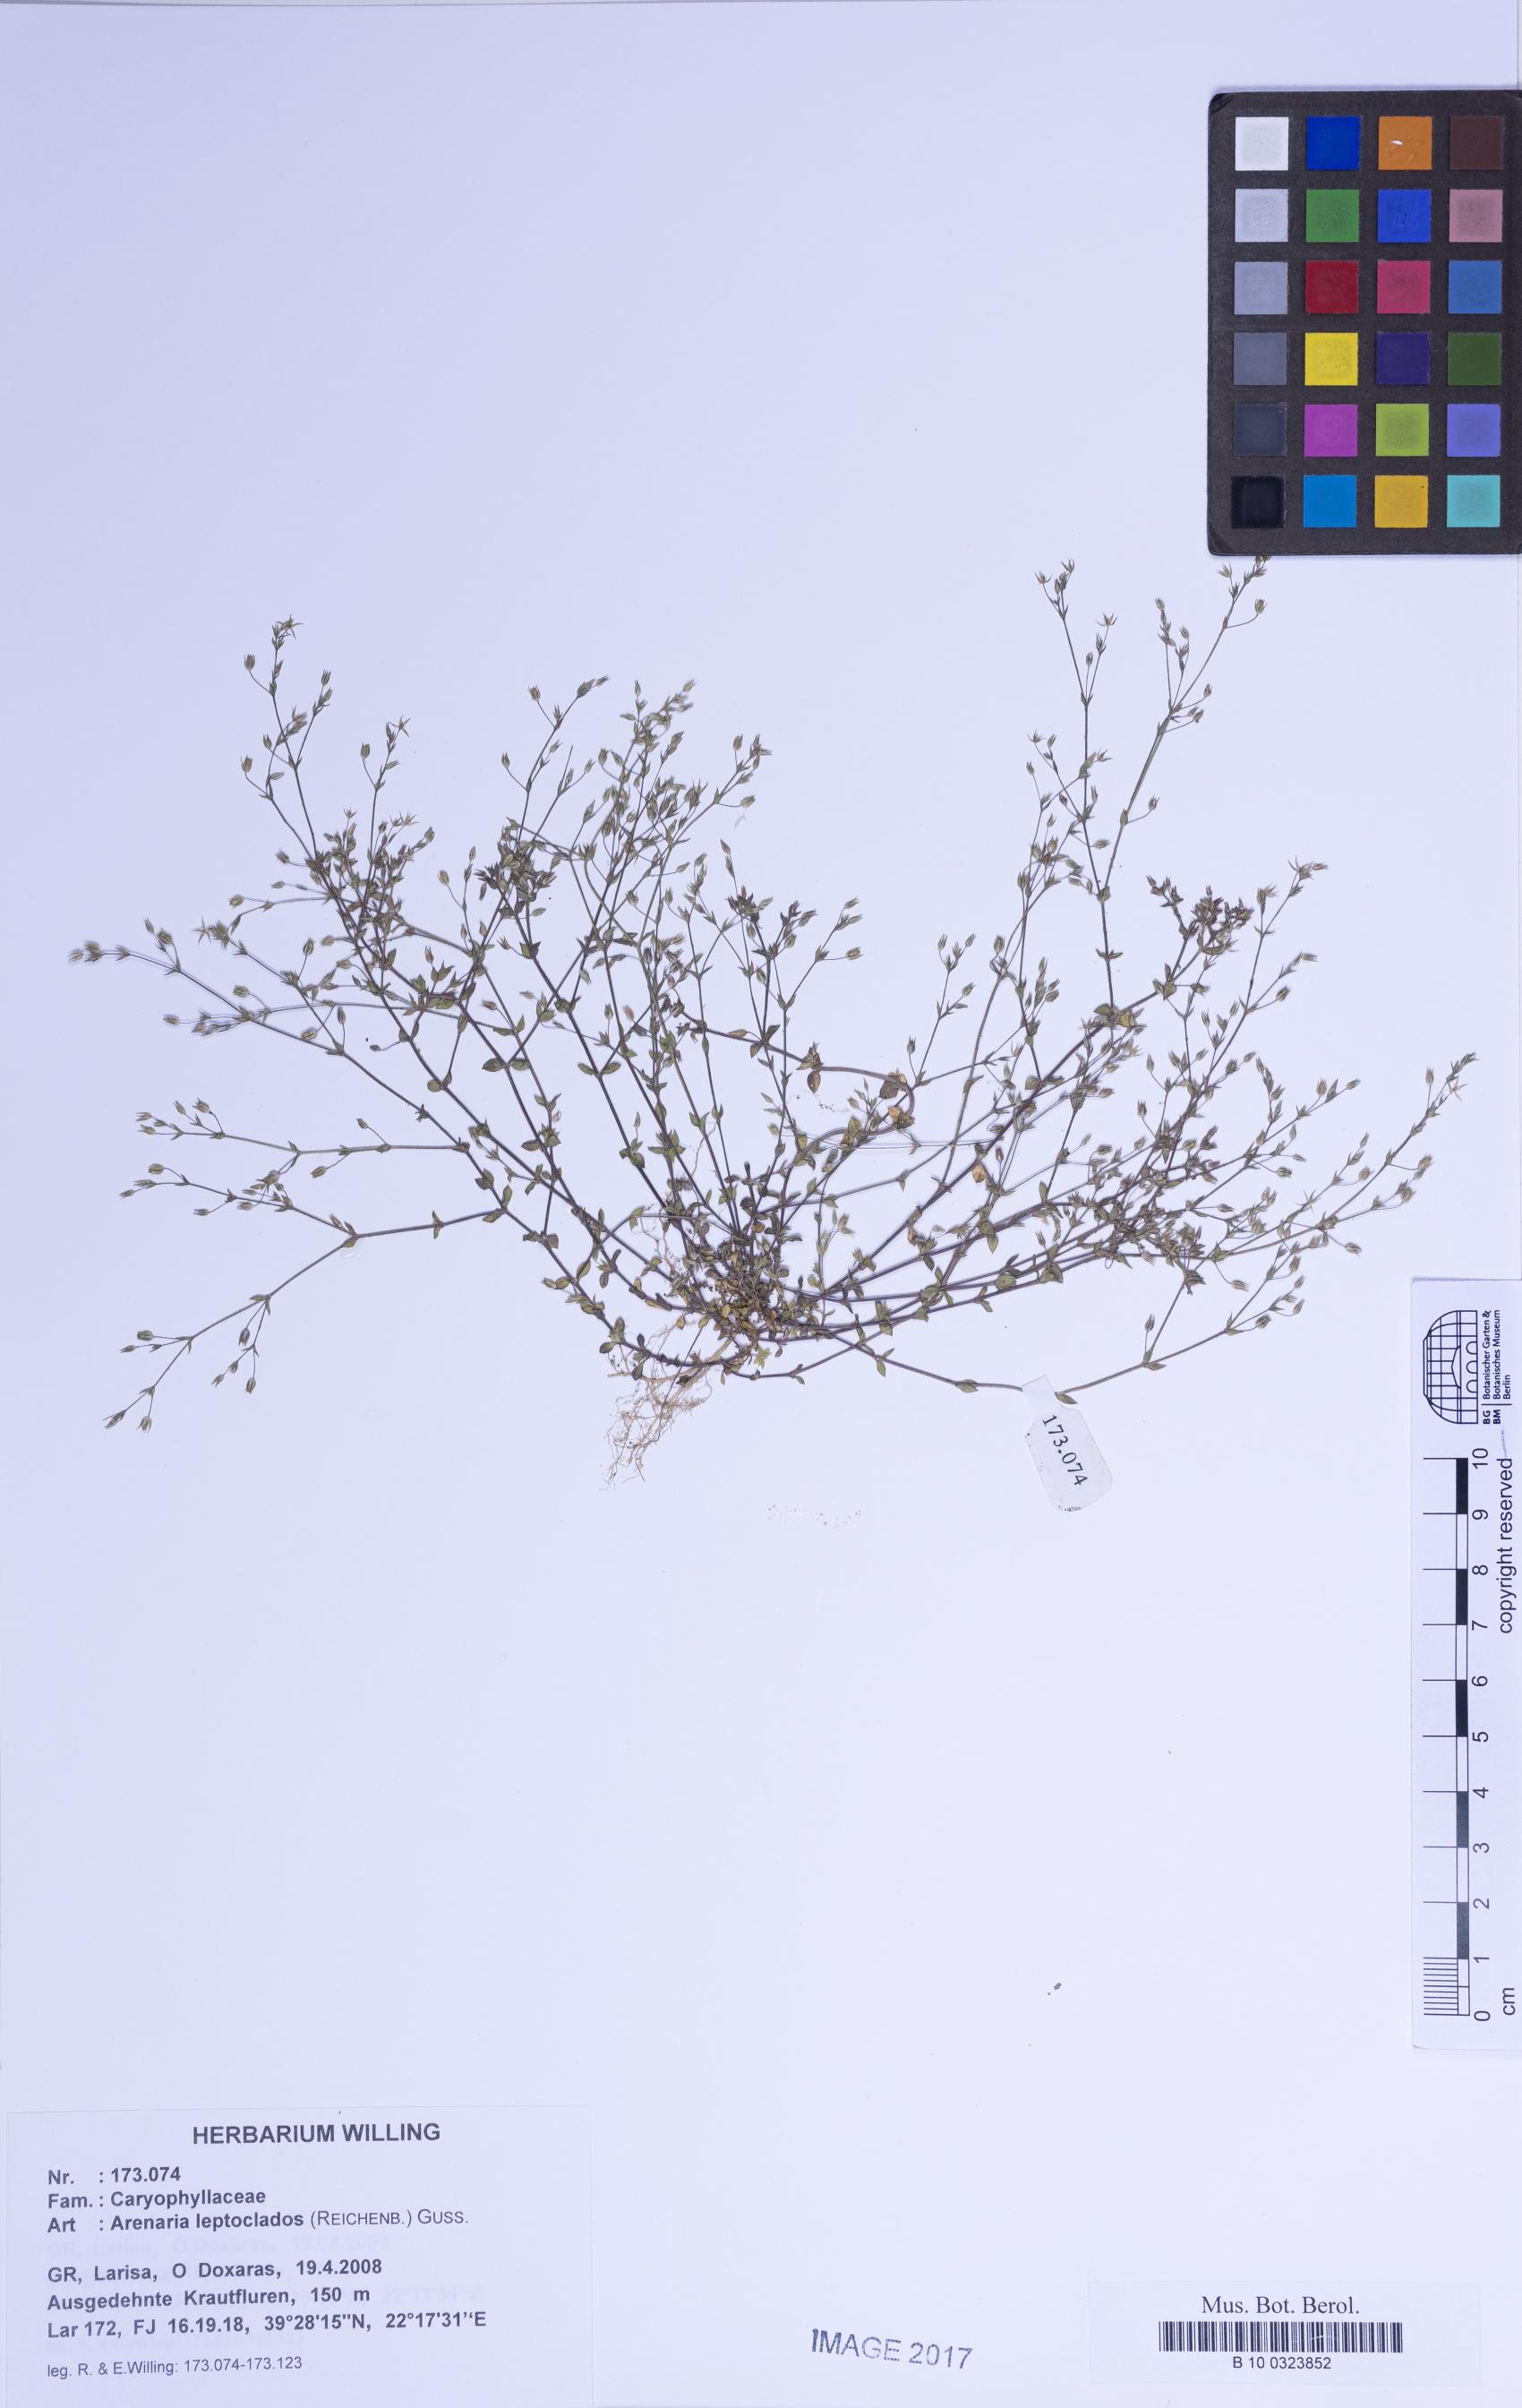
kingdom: Plantae
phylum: Tracheophyta
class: Magnoliopsida
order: Caryophyllales
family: Caryophyllaceae
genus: Arenaria
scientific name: Arenaria leptoclados
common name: Thyme-leaved sandwort
